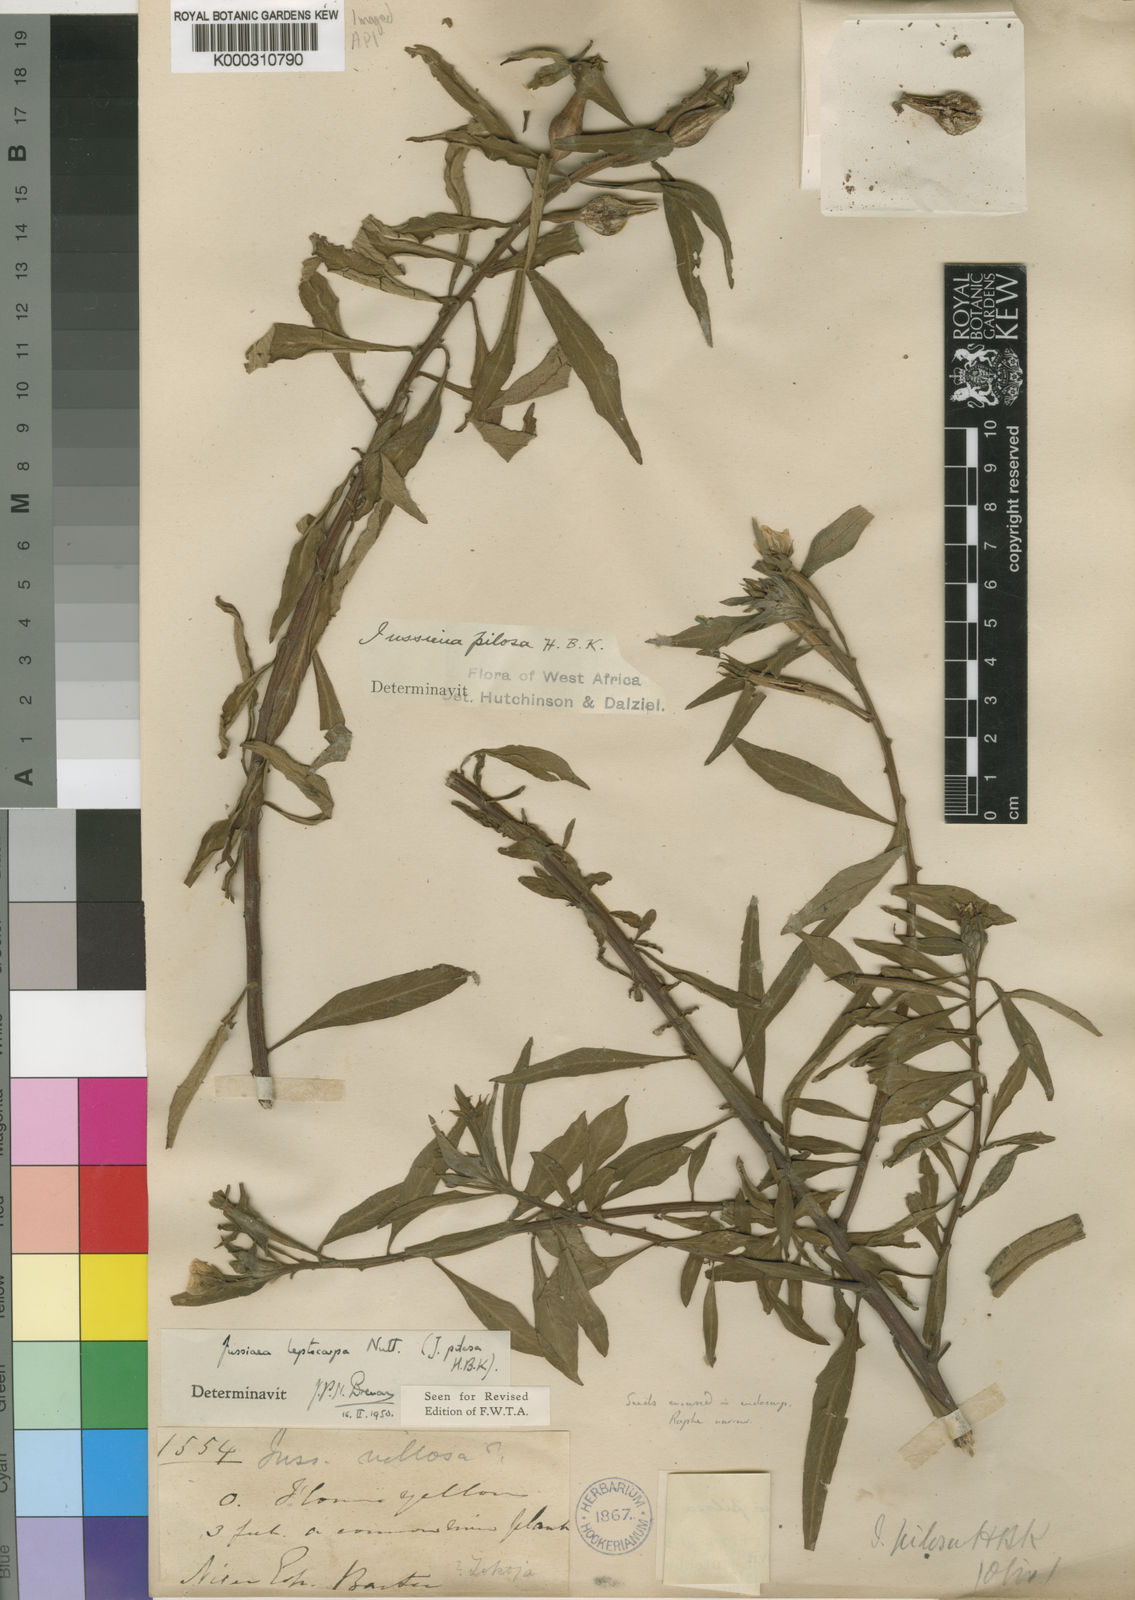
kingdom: Plantae
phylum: Tracheophyta
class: Magnoliopsida
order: Myrtales
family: Onagraceae
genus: Ludwigia
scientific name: Ludwigia leptocarpa
